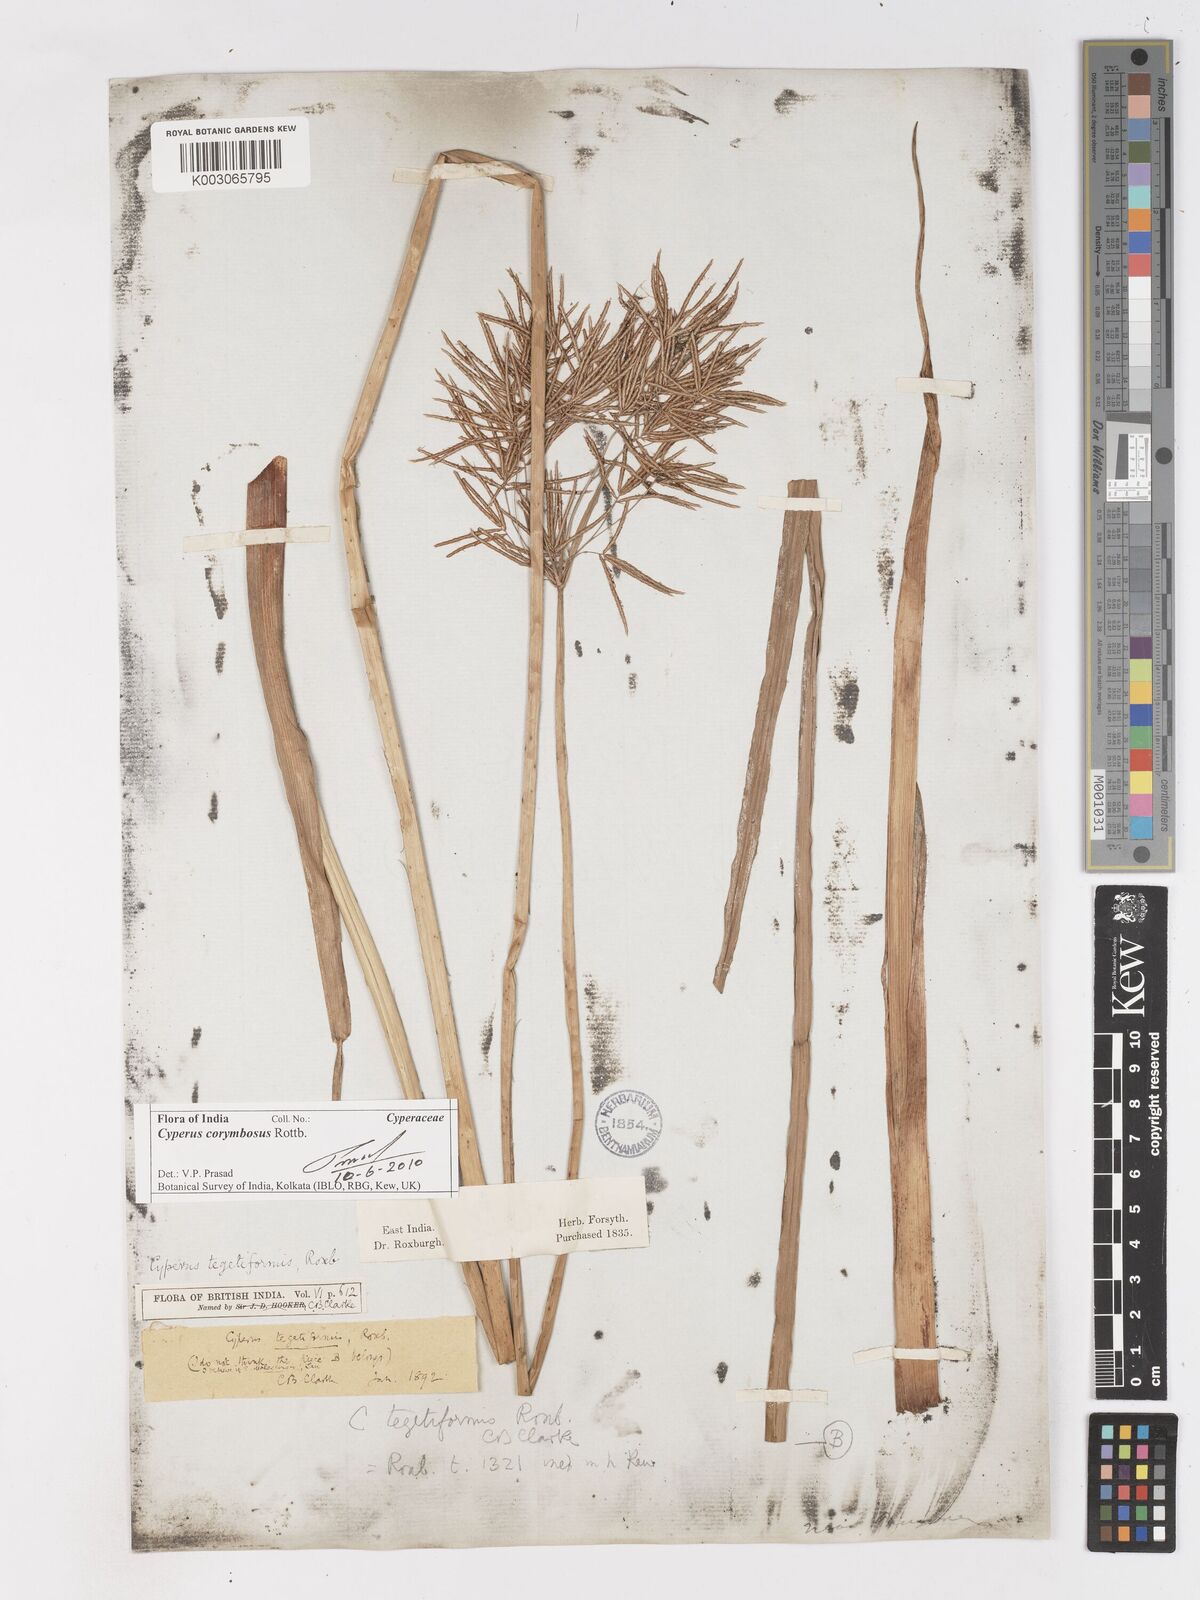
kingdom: Plantae
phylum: Tracheophyta
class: Liliopsida
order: Poales
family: Cyperaceae
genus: Cyperus
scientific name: Cyperus corymbosus
